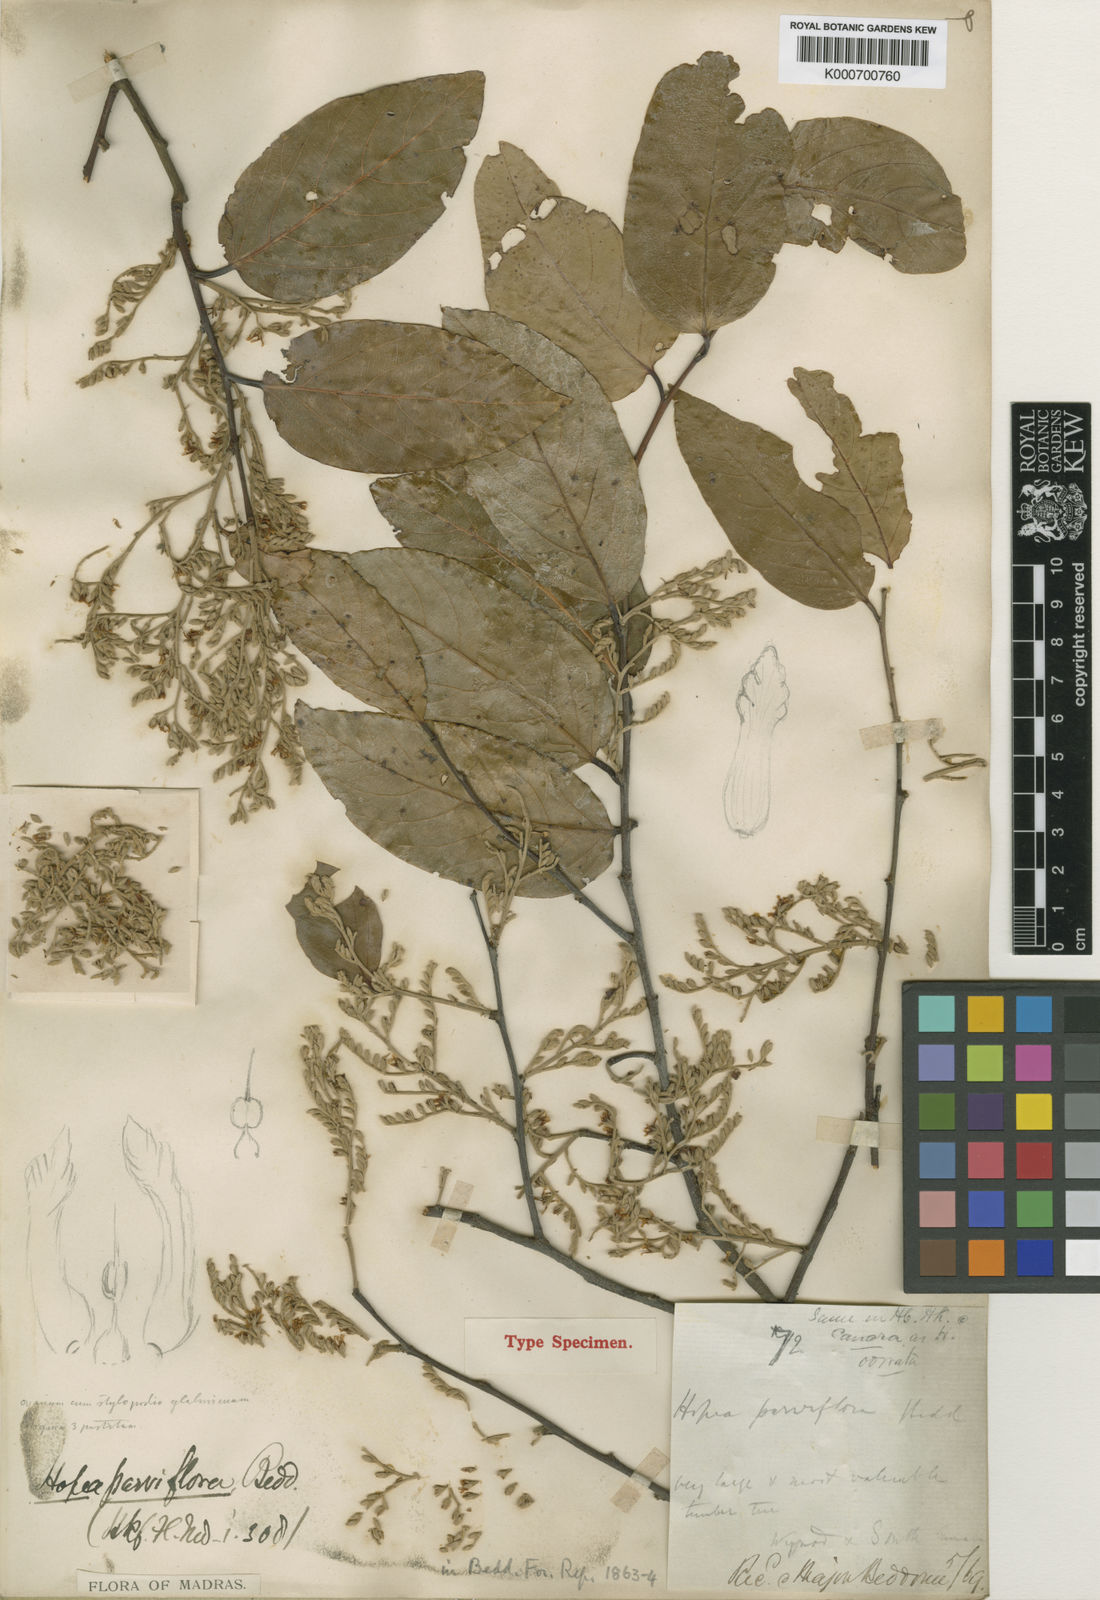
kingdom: Plantae
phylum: Tracheophyta
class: Magnoliopsida
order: Malvales
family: Dipterocarpaceae
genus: Hopea
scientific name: Hopea parviflora
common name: Malabar ironwood
